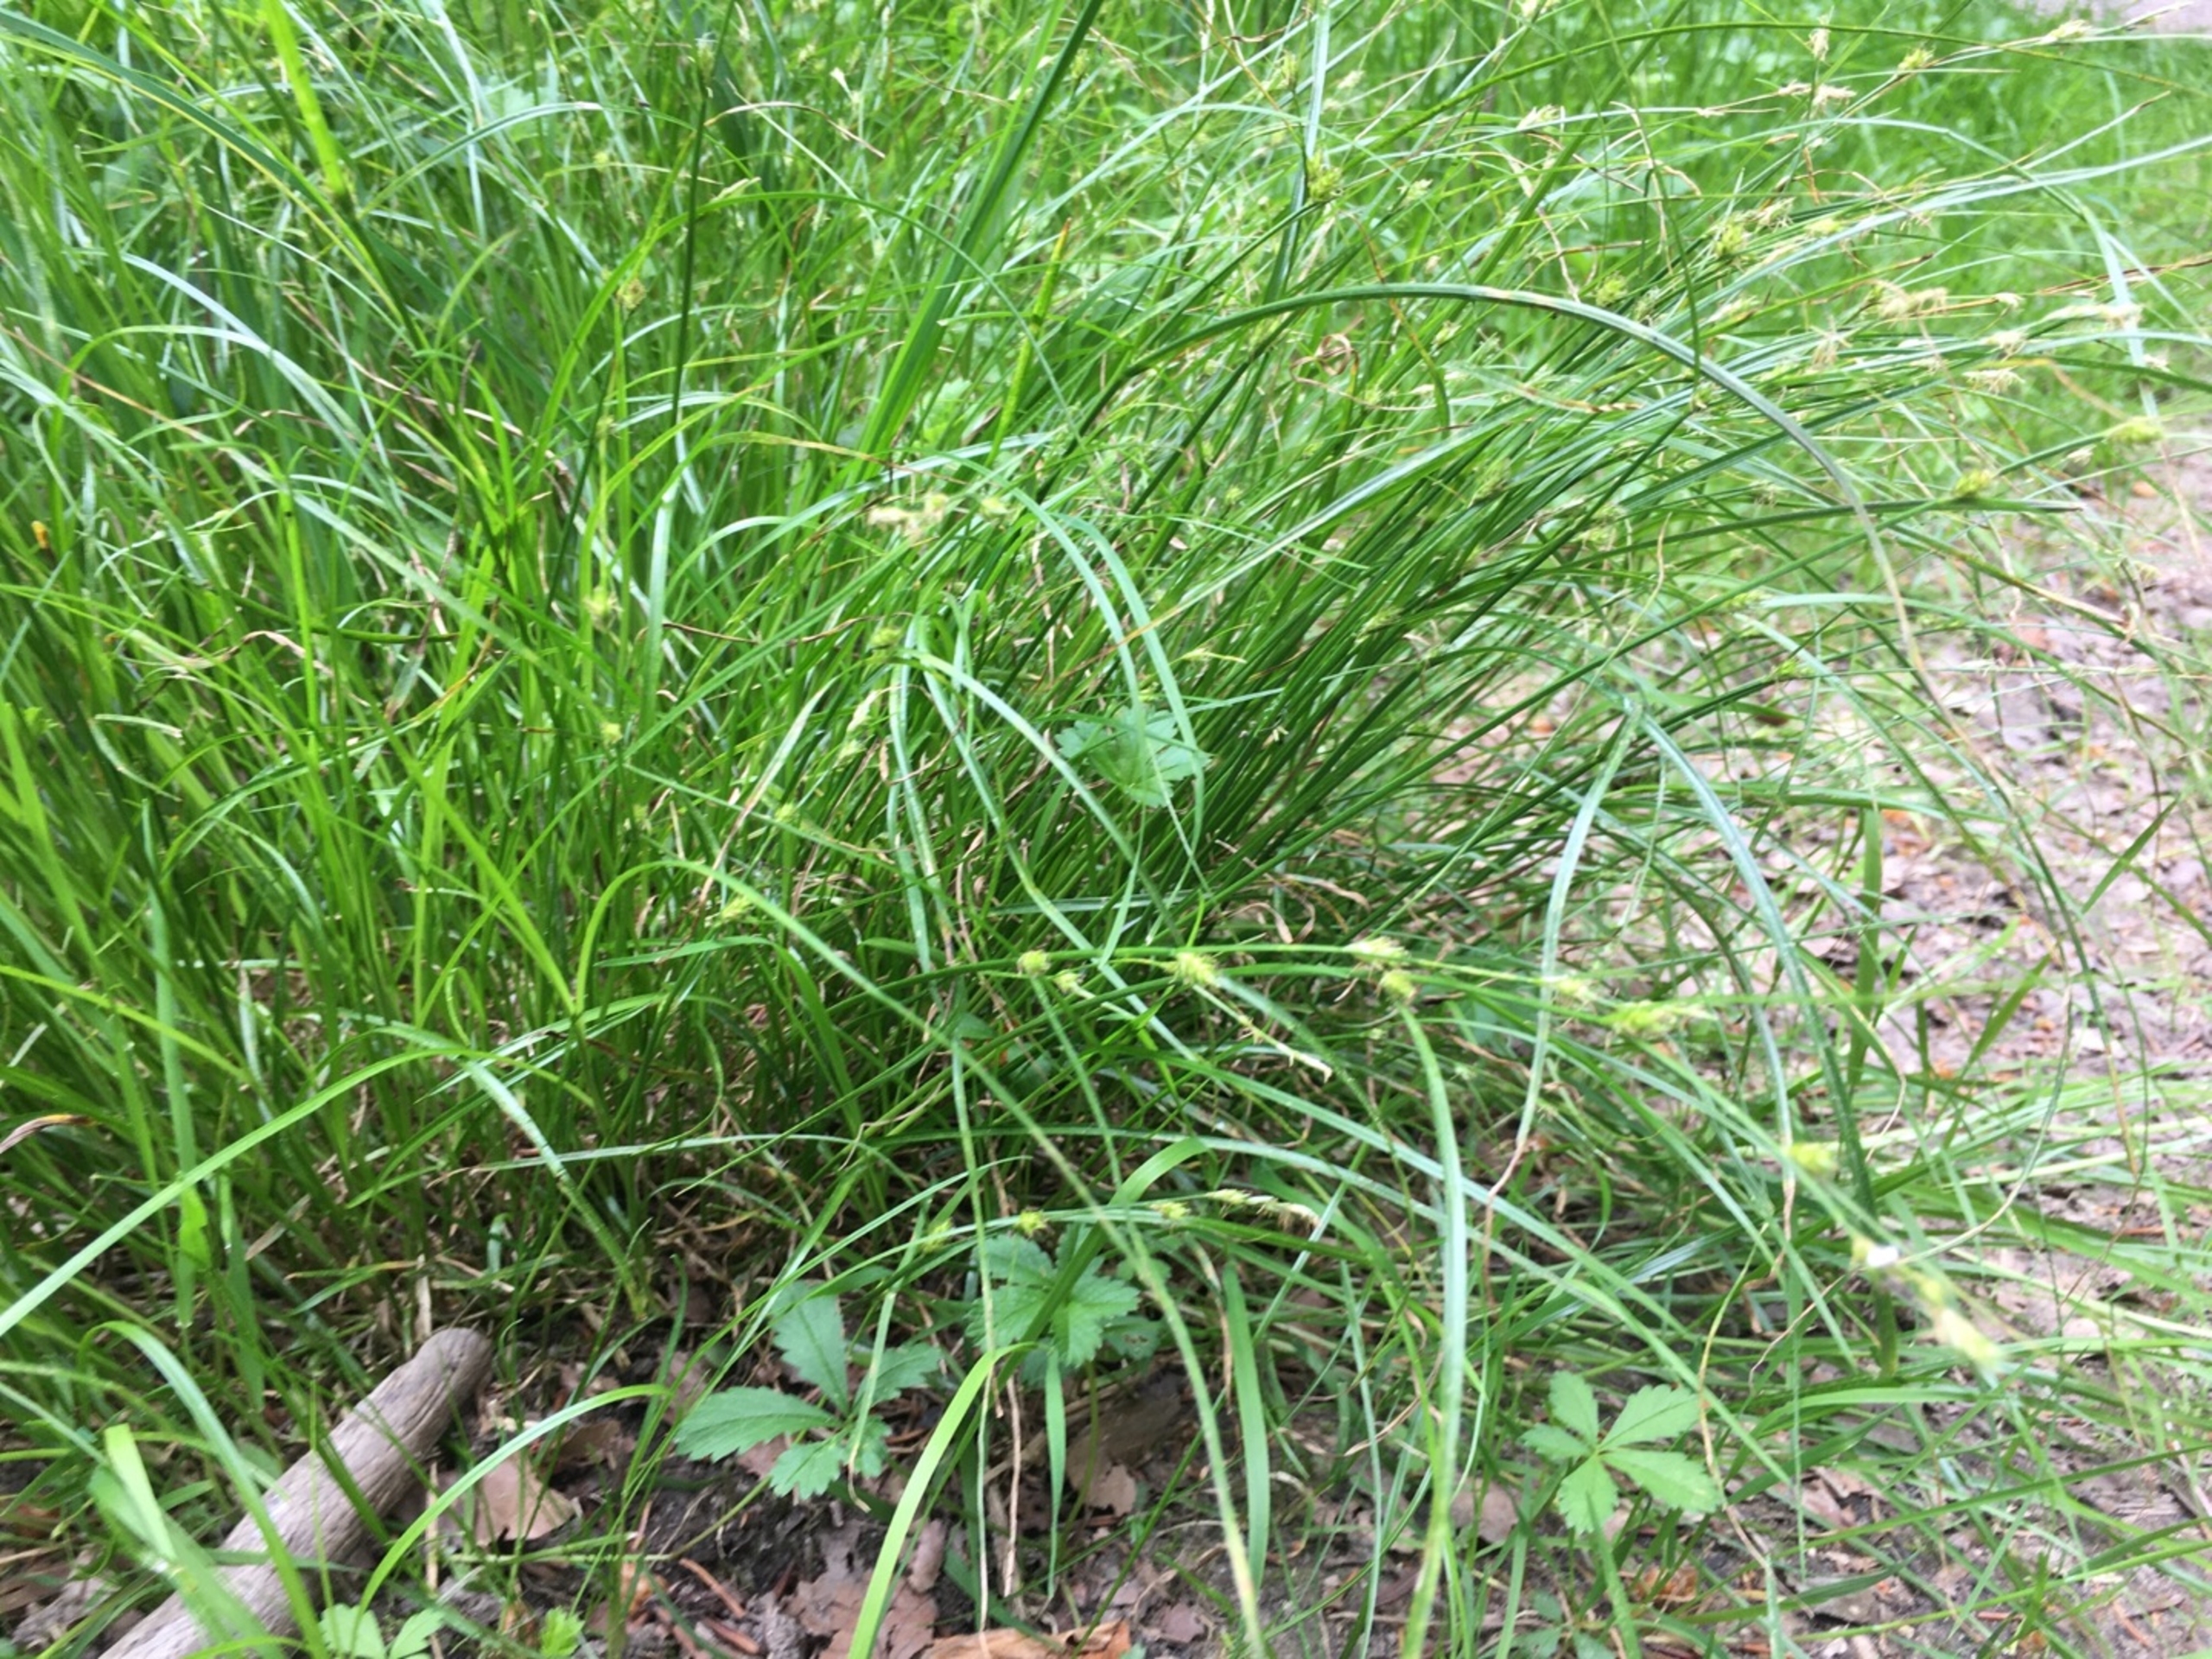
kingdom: Plantae
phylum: Tracheophyta
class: Liliopsida
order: Poales
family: Cyperaceae
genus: Carex
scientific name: Carex remota
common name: Akselblomstret star
